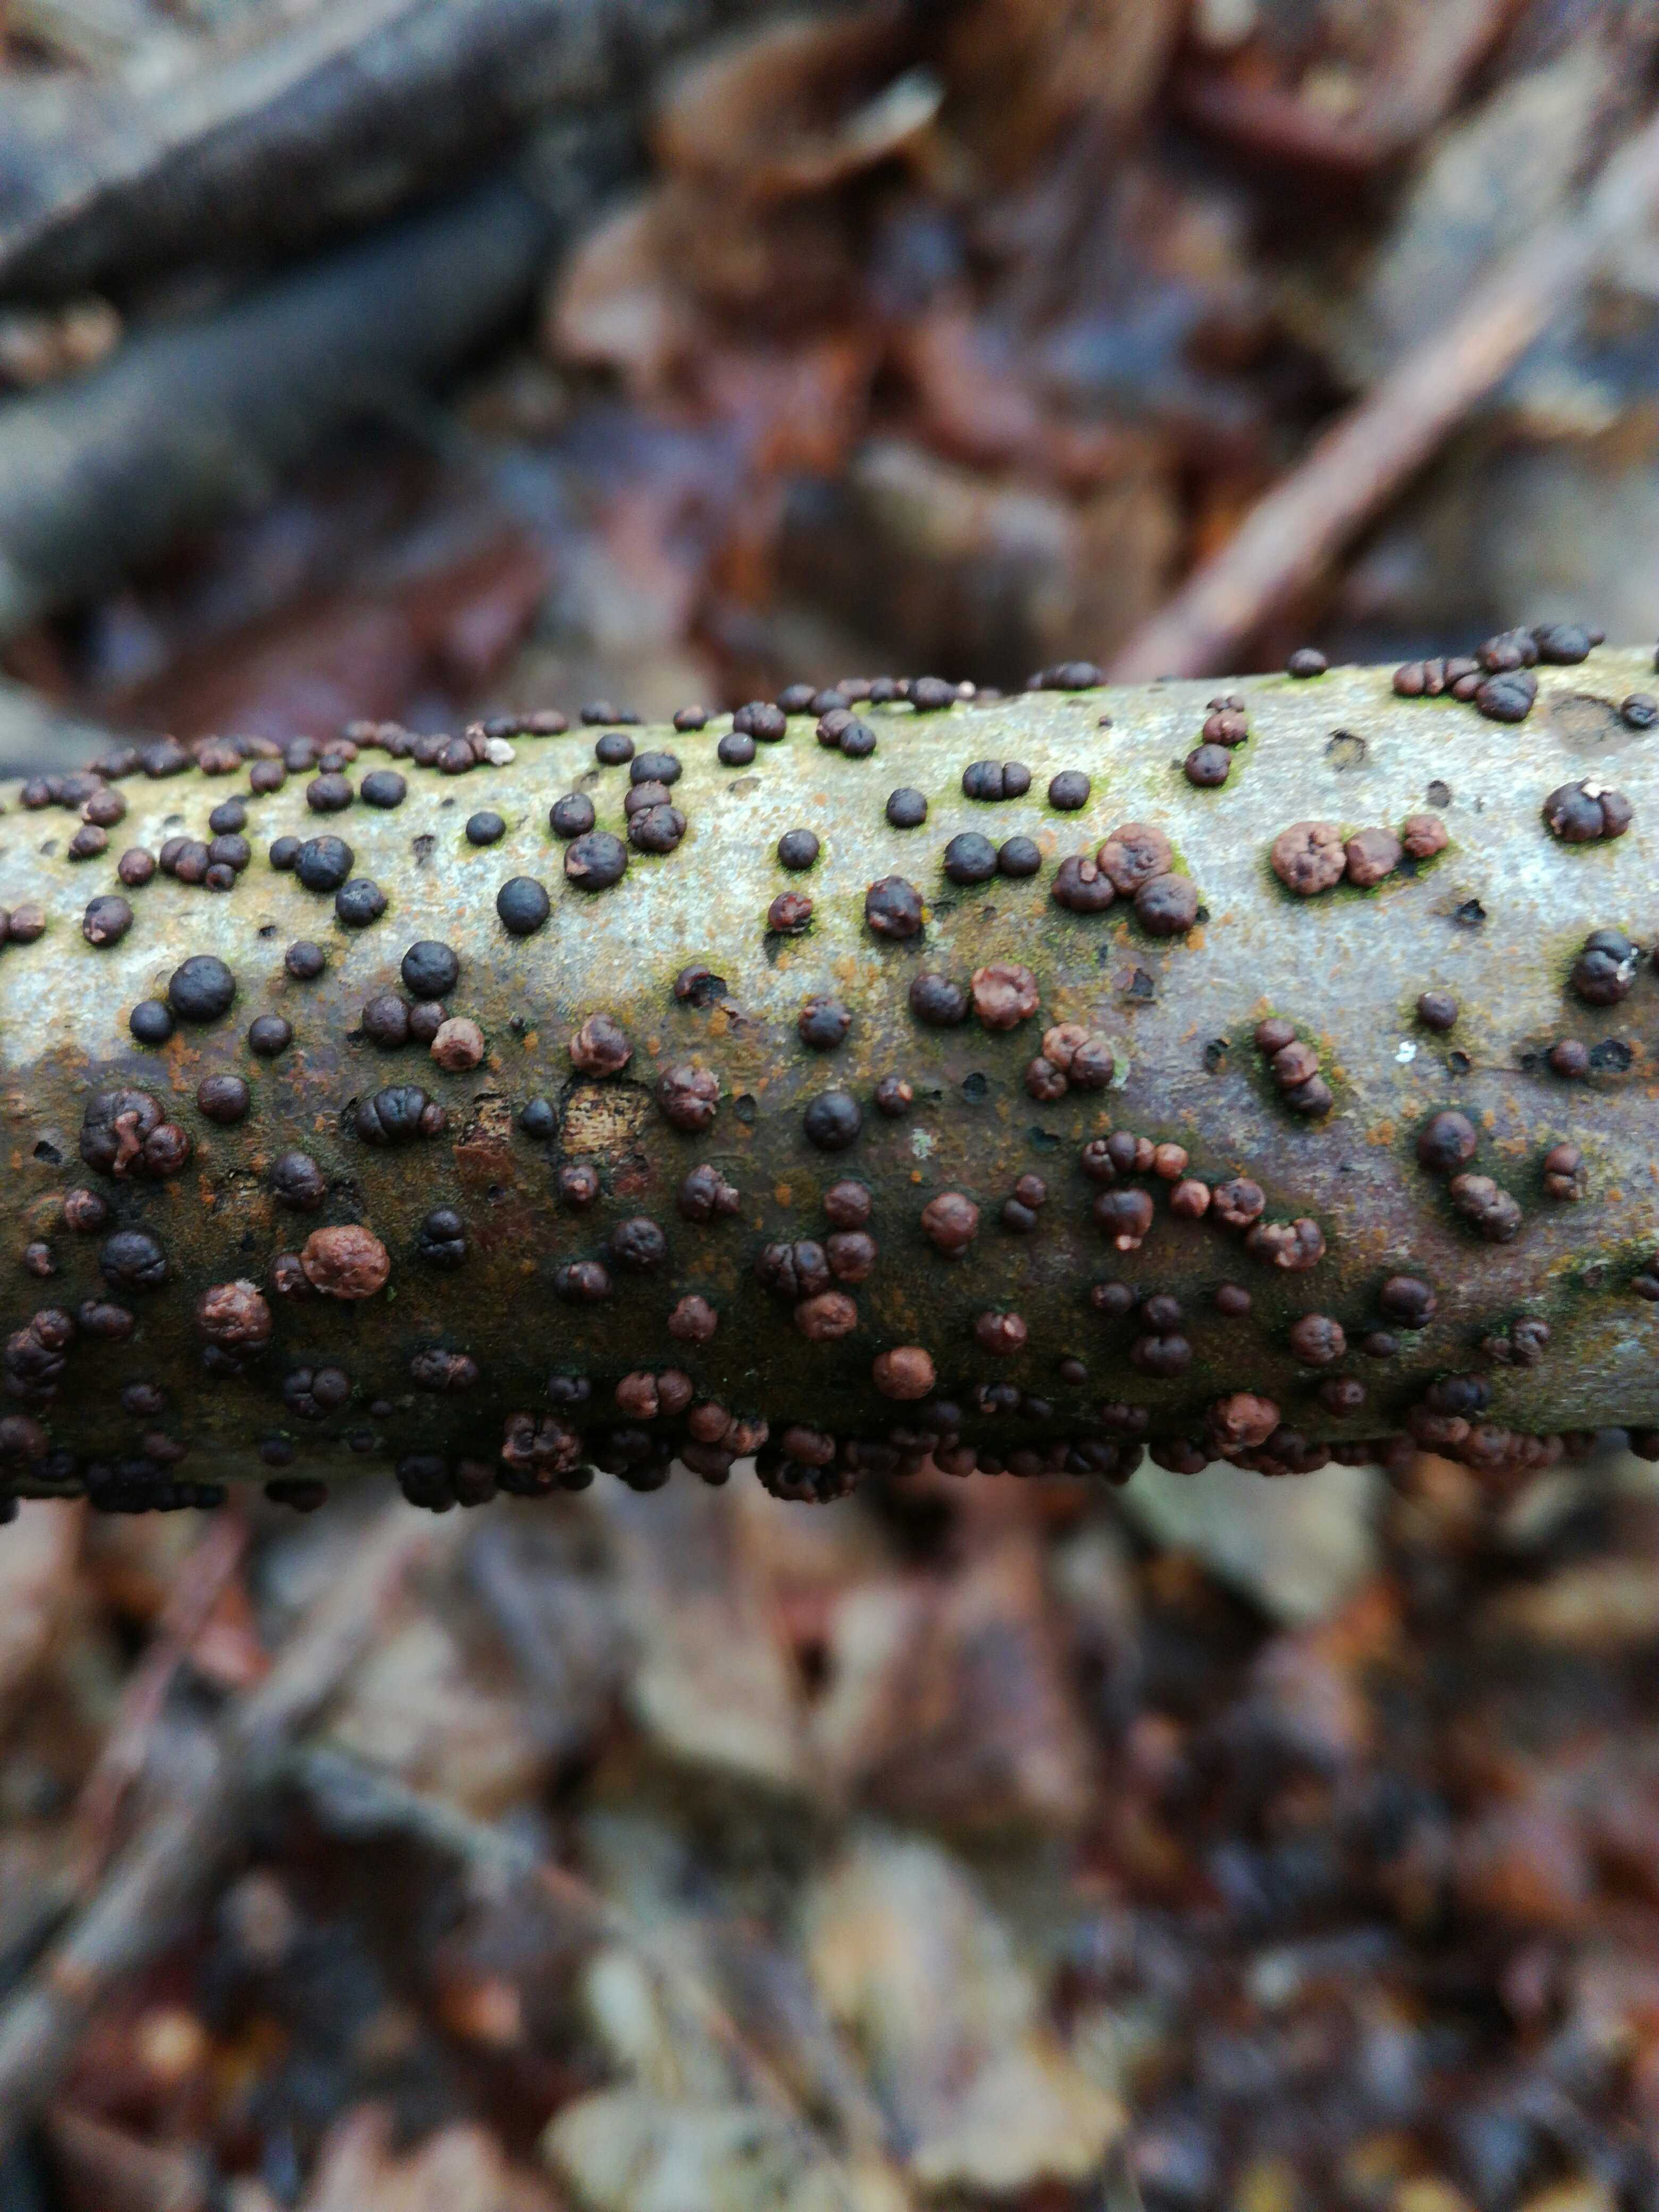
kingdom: Fungi
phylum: Ascomycota
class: Sordariomycetes
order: Xylariales
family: Hypoxylaceae
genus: Hypoxylon
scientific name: Hypoxylon
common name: kulbær
